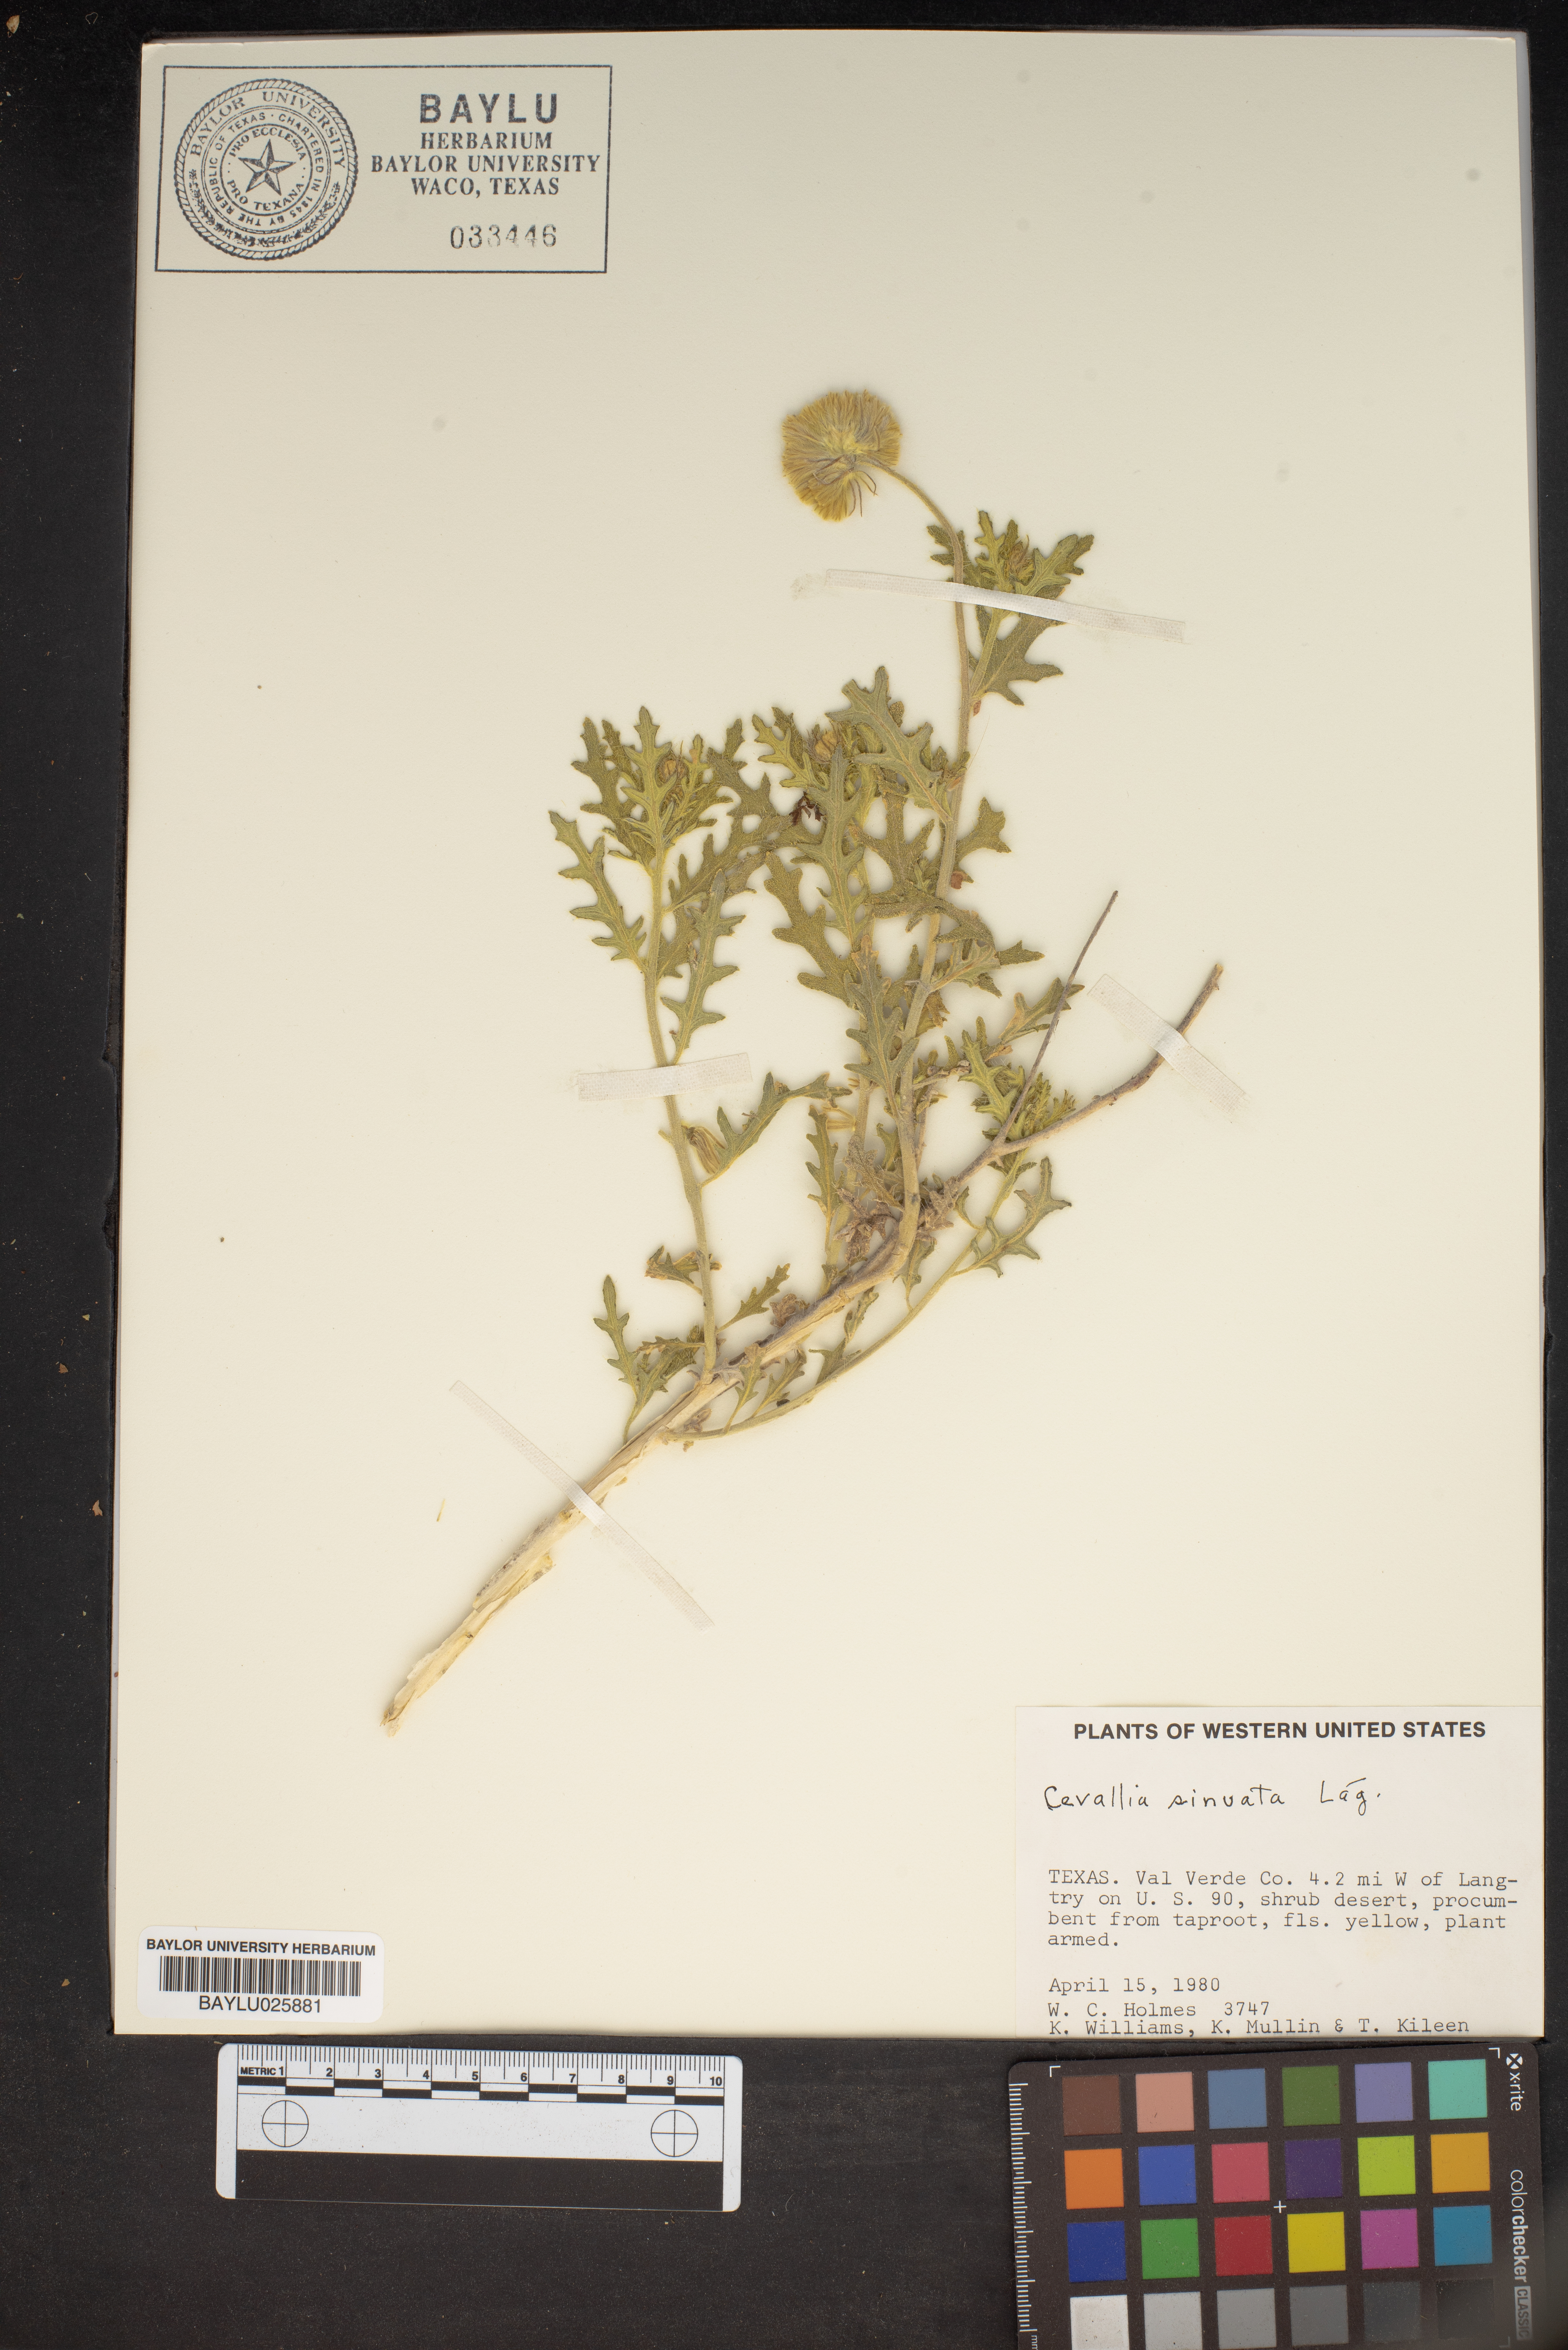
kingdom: Plantae
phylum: Tracheophyta
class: Magnoliopsida
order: Cornales
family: Loasaceae
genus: Cevallia
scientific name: Cevallia sinuata
